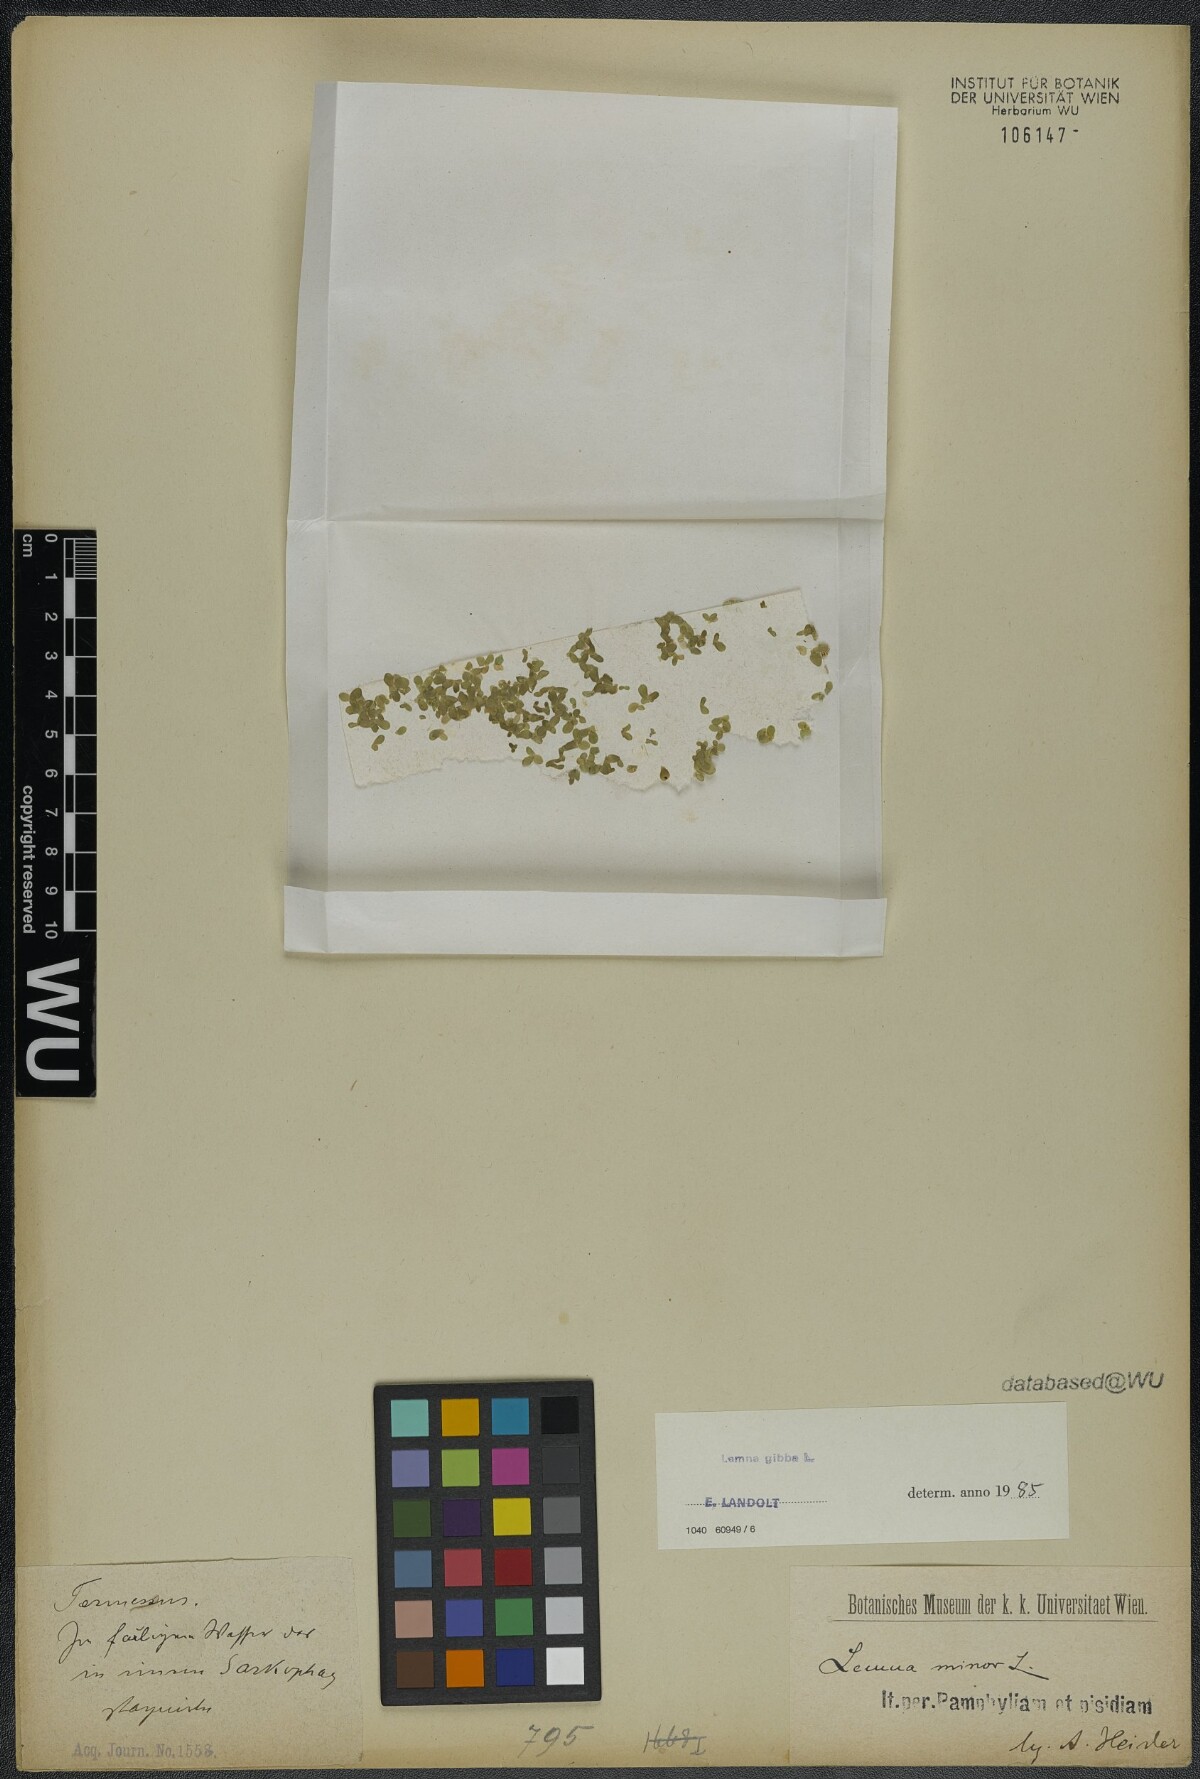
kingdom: Plantae
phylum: Tracheophyta
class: Liliopsida
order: Alismatales
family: Araceae
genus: Lemna
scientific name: Lemna gibba
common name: Fat duckweed
